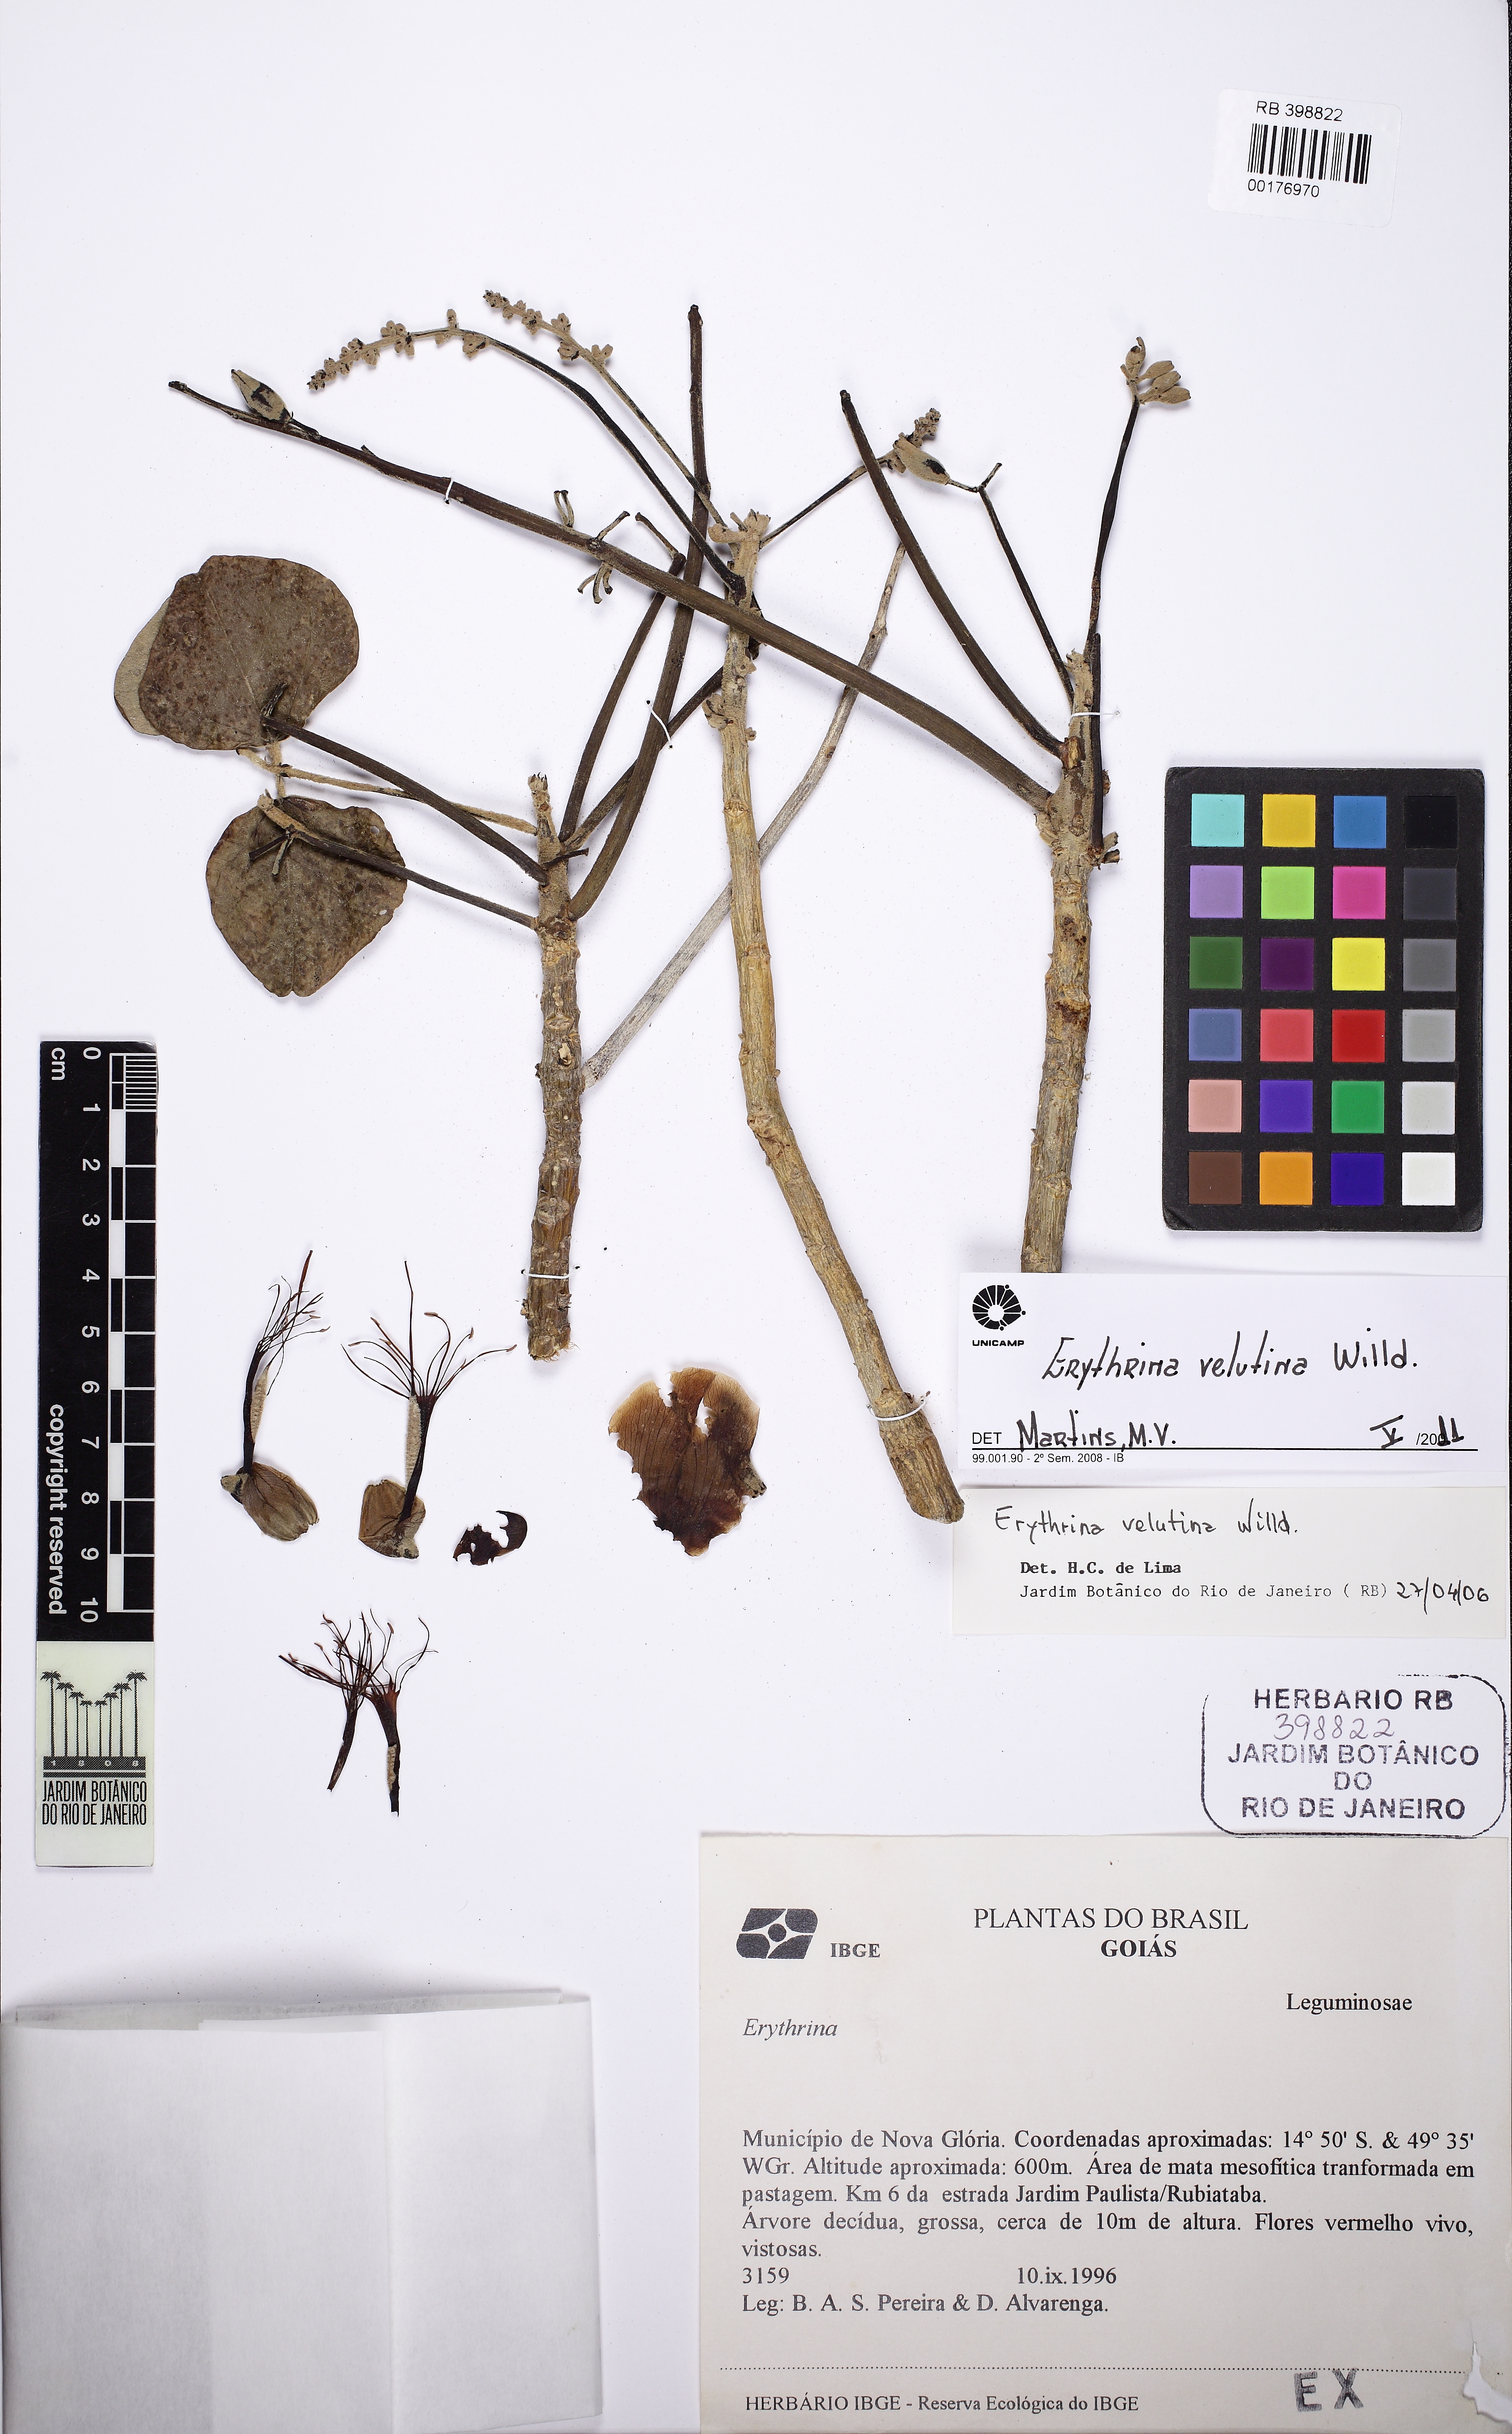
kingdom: Plantae
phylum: Tracheophyta
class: Magnoliopsida
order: Fabales
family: Fabaceae
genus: Erythrina
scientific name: Erythrina velutina
